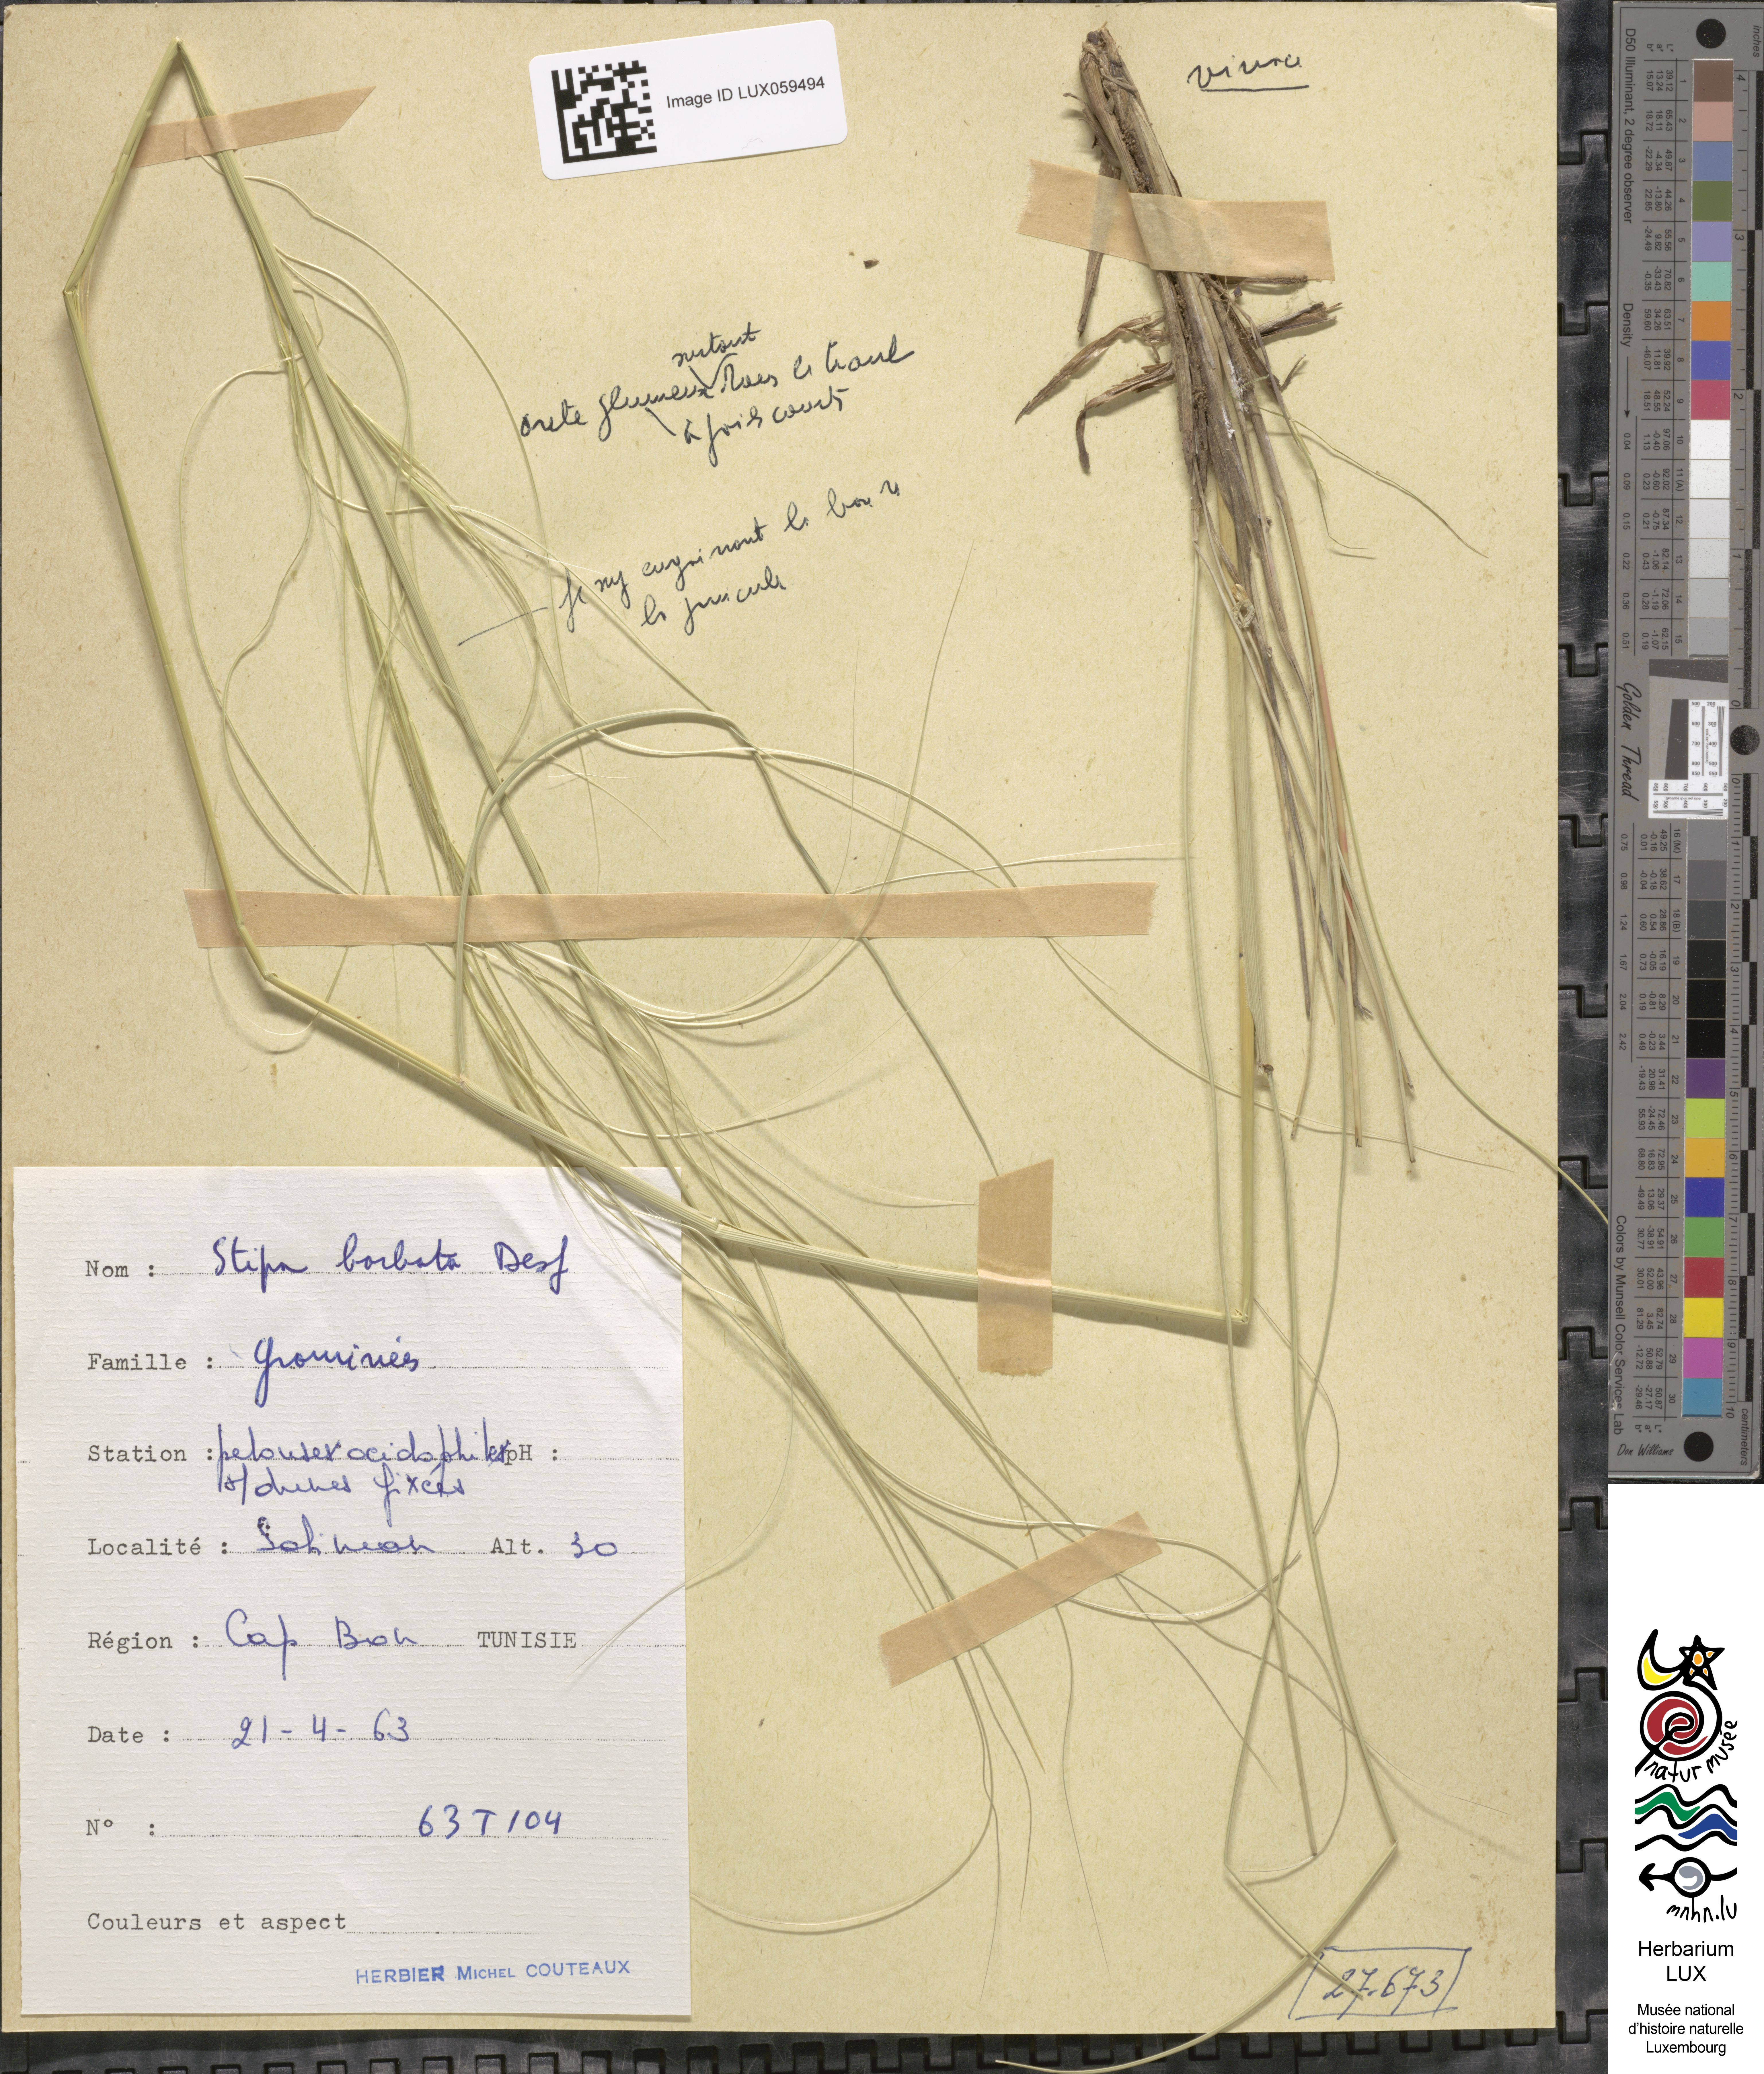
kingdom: Plantae
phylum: Tracheophyta
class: Liliopsida
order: Poales
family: Poaceae
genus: Stipa
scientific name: Stipa barbata
